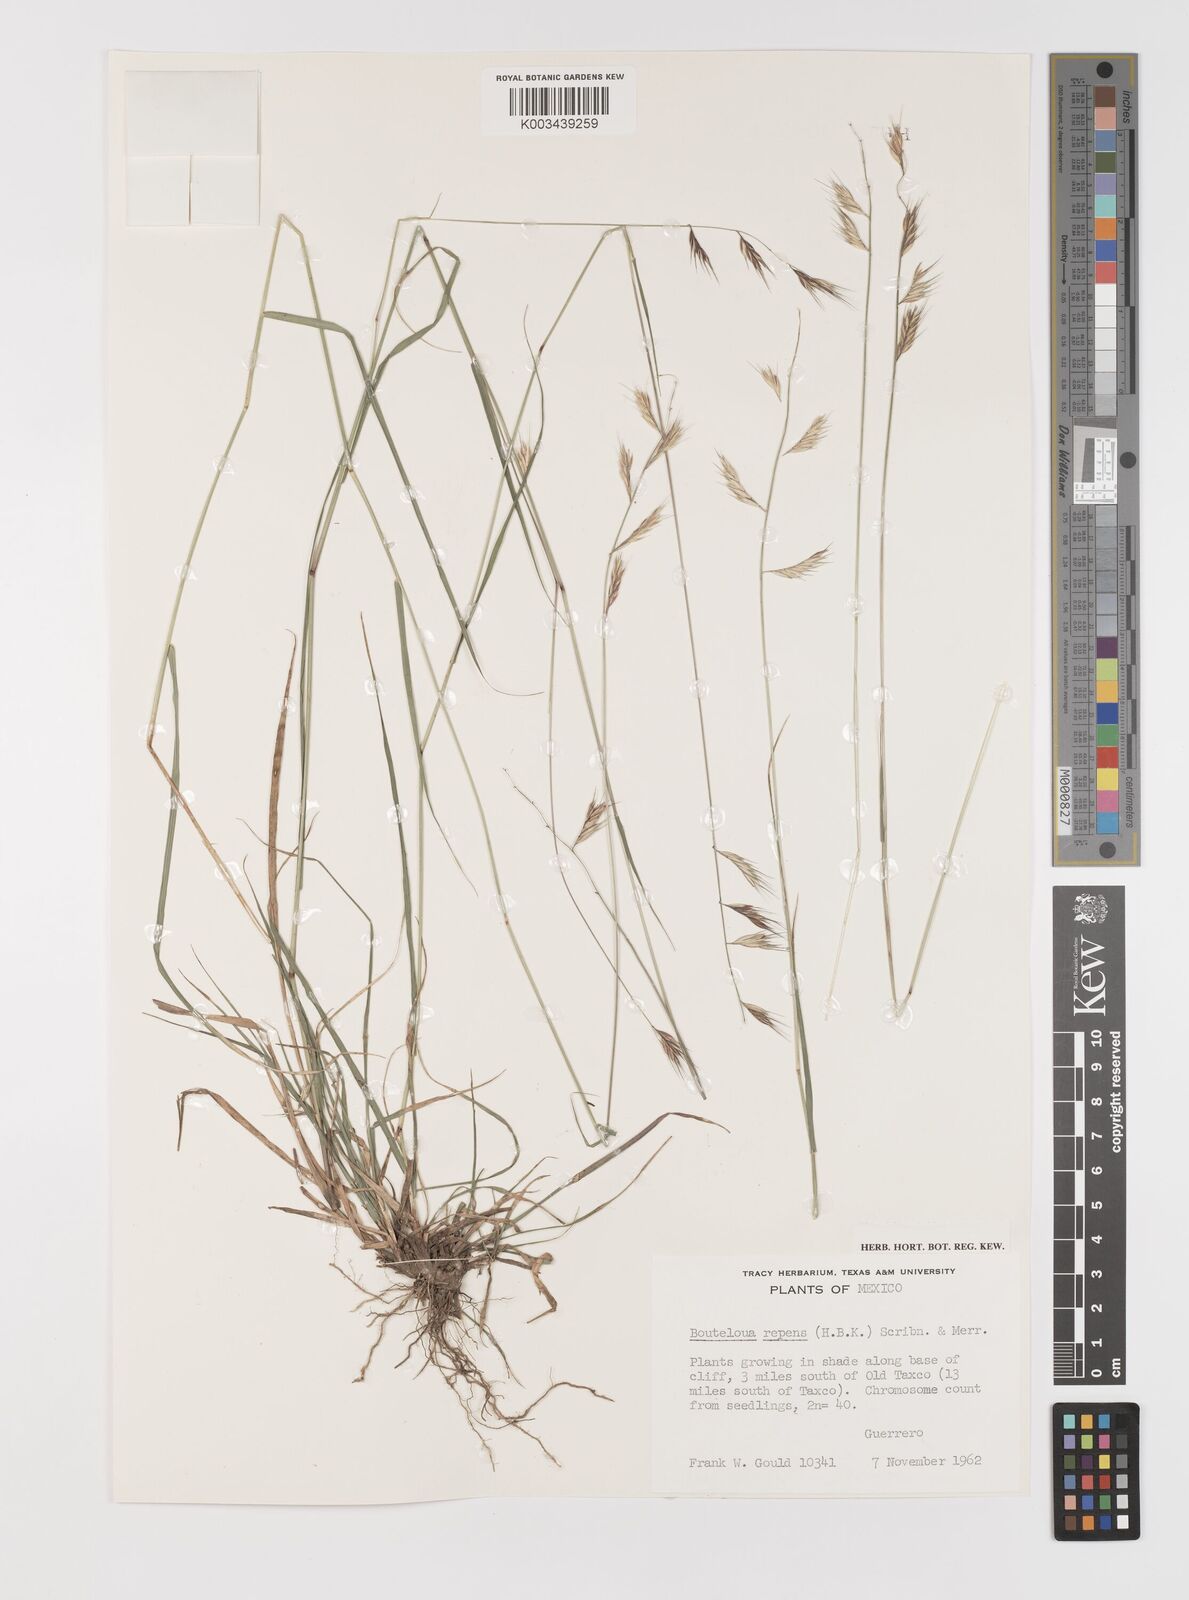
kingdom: Plantae
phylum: Tracheophyta
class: Liliopsida
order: Poales
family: Poaceae
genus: Bouteloua
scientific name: Bouteloua repens
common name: Slender grama
